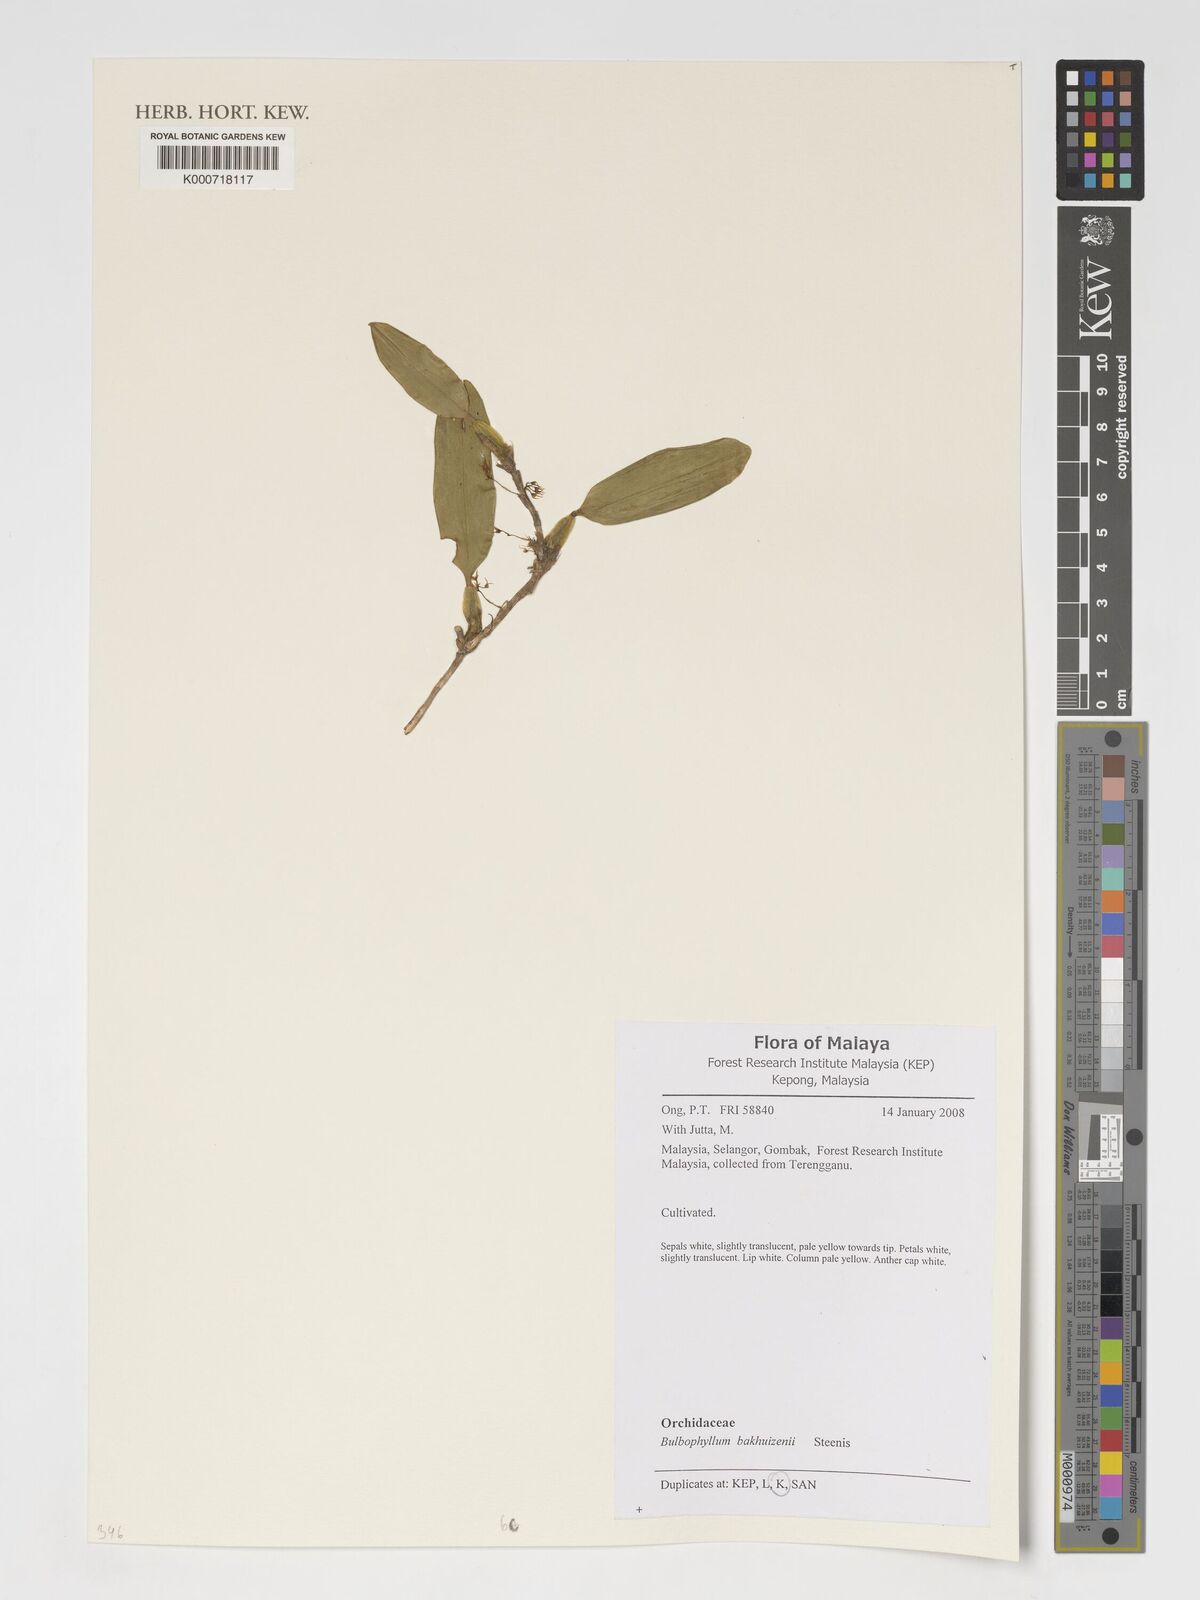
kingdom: Plantae
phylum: Tracheophyta
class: Liliopsida
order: Asparagales
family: Orchidaceae
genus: Bulbophyllum
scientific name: Bulbophyllum longerepens
